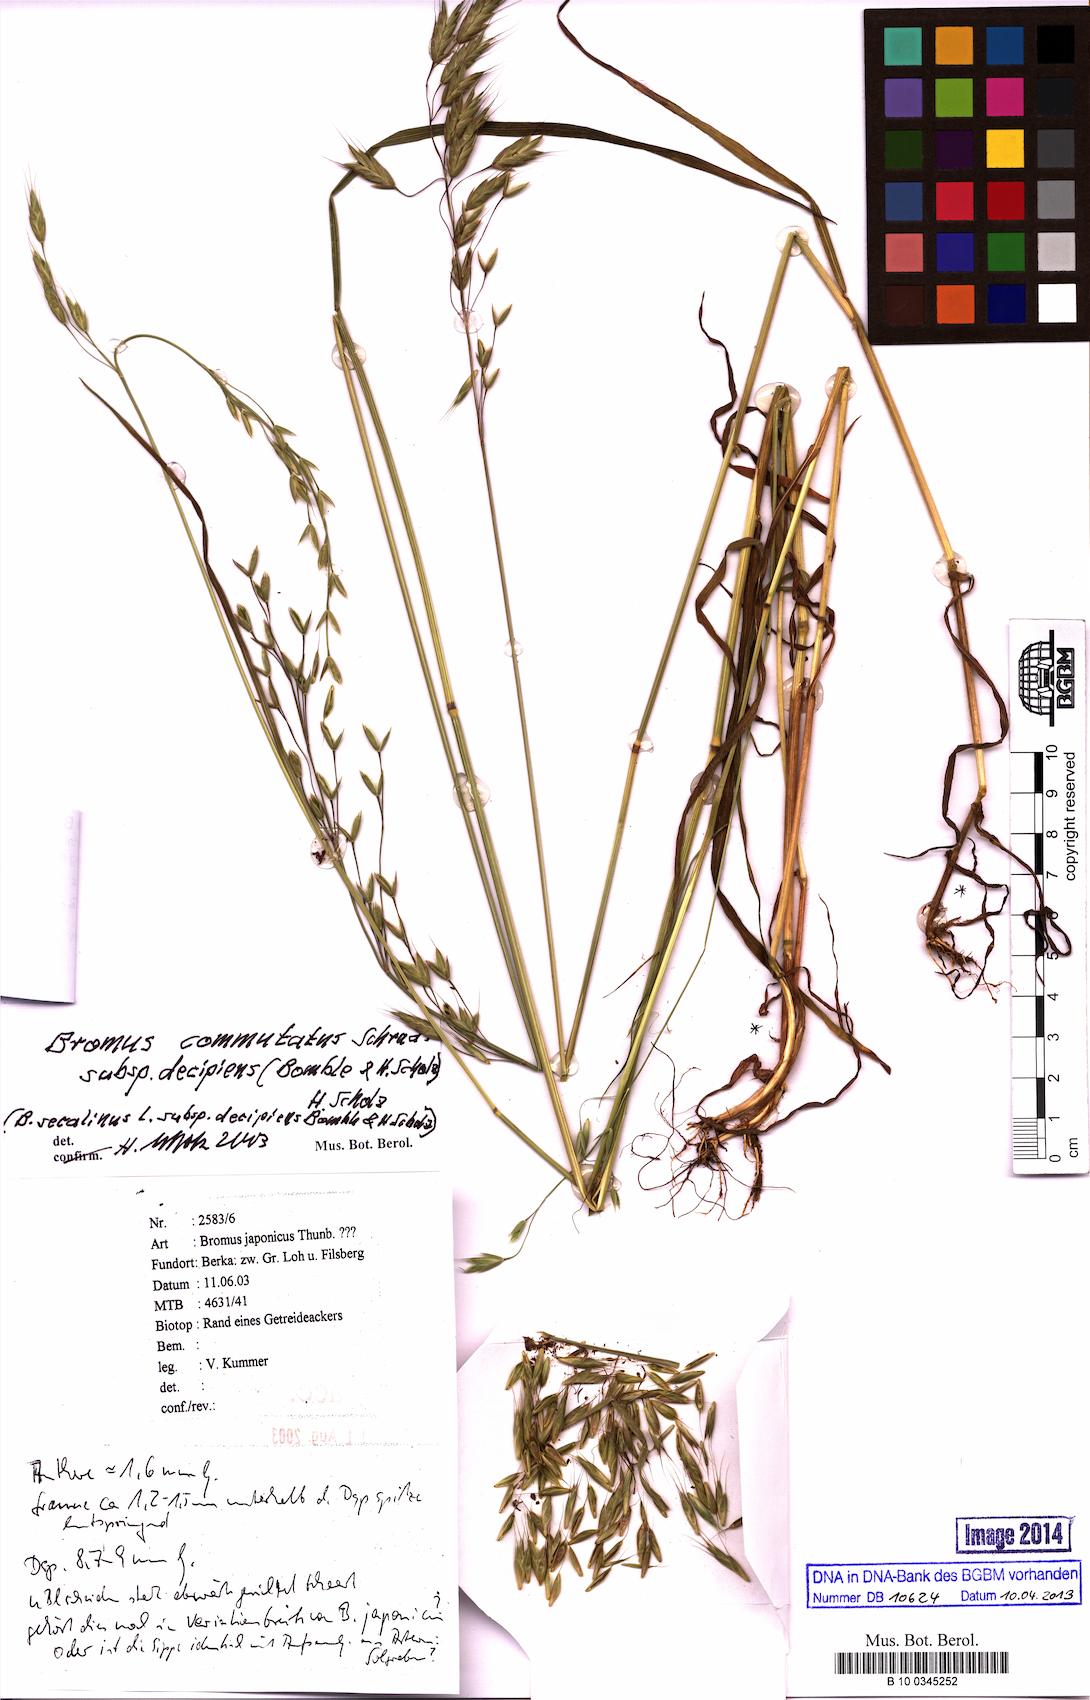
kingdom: Plantae
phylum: Tracheophyta
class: Liliopsida
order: Poales
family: Poaceae
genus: Bromus
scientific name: Bromus commutatus
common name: Meadow brome
